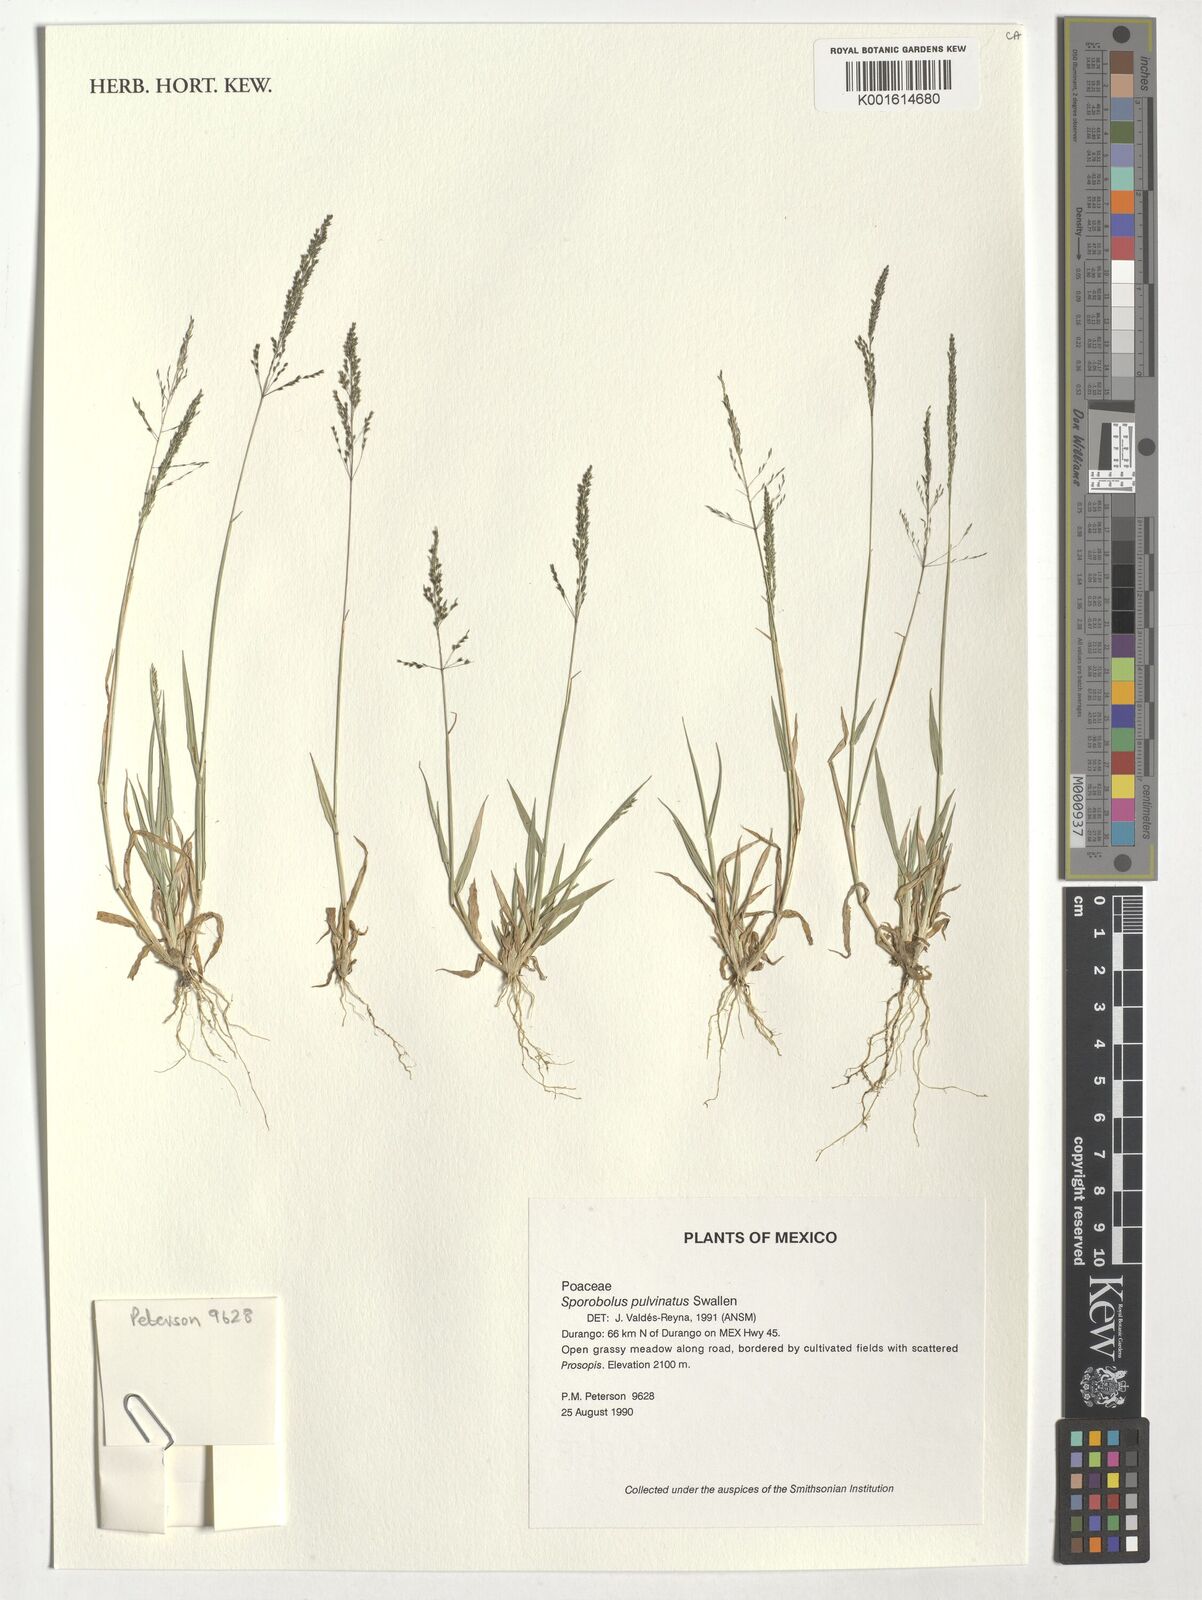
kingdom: Plantae
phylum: Tracheophyta
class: Liliopsida
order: Poales
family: Poaceae
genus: Sporobolus
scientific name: Sporobolus pyramidatus
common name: Whorled dropseed
